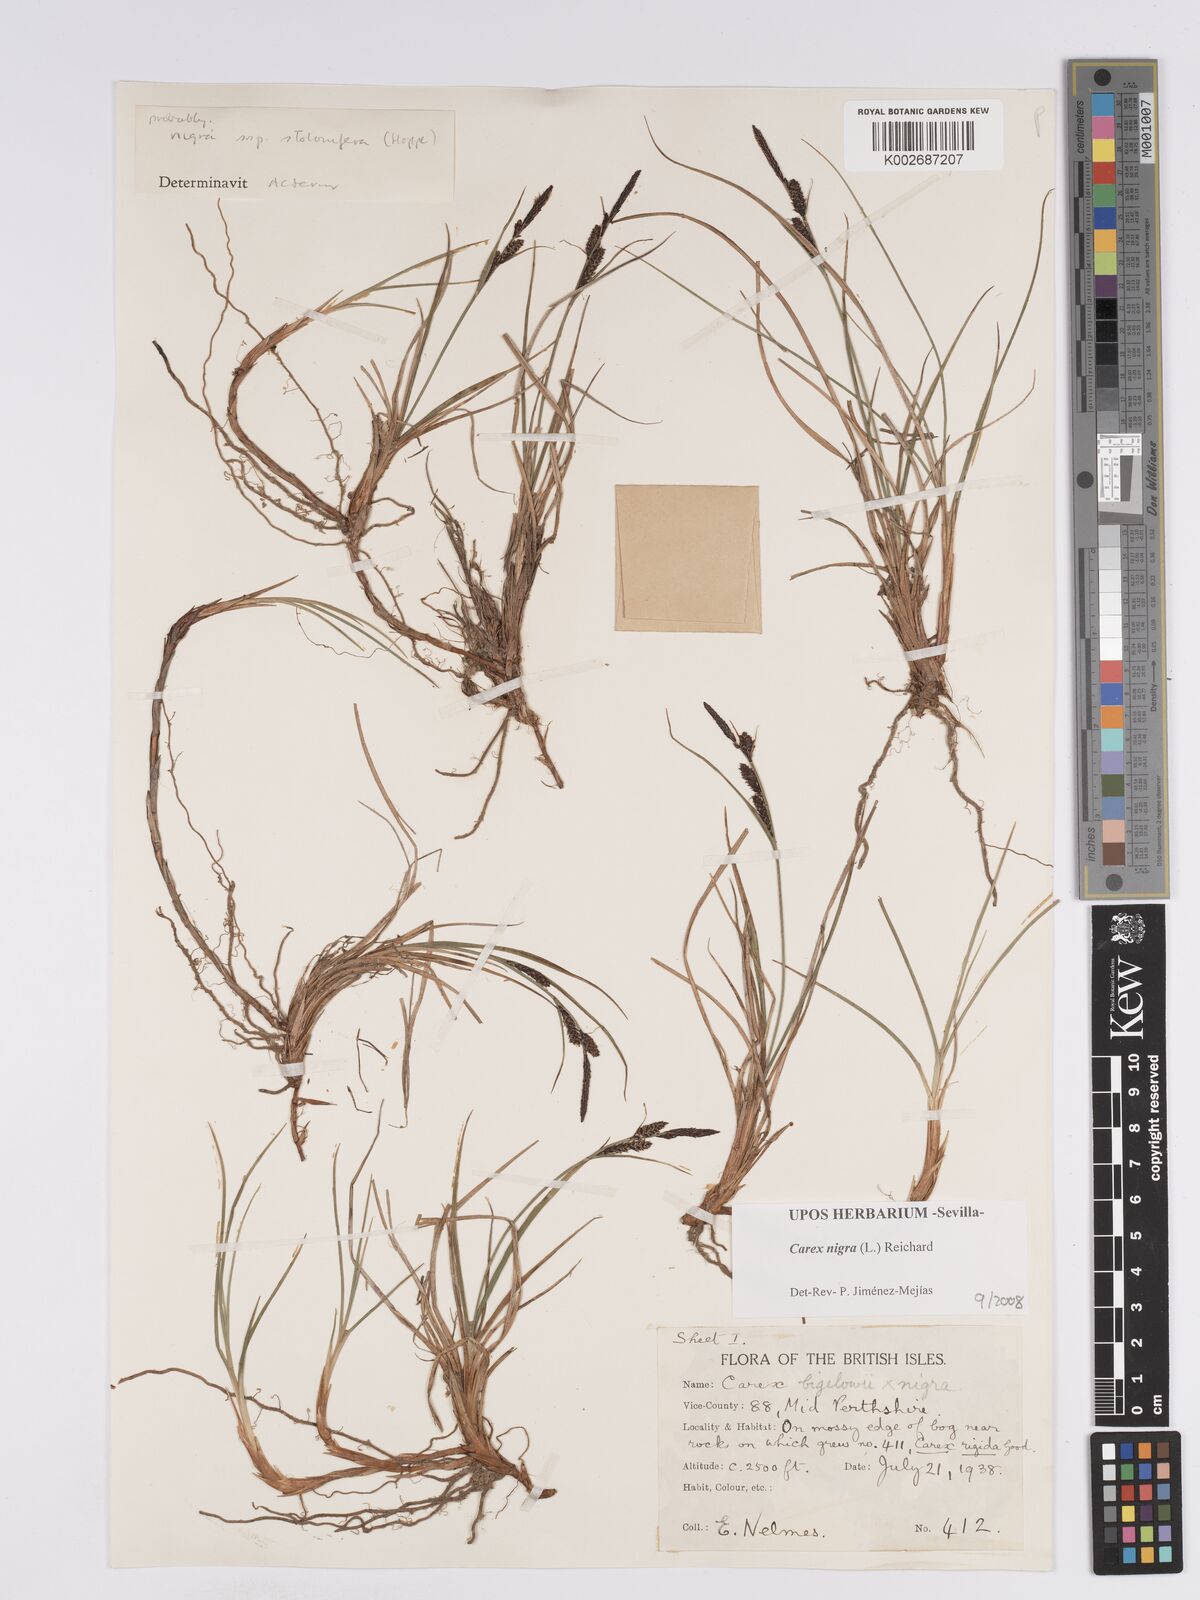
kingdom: Plantae
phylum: Tracheophyta
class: Liliopsida
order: Poales
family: Cyperaceae
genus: Carex
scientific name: Carex nigra
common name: Common sedge
